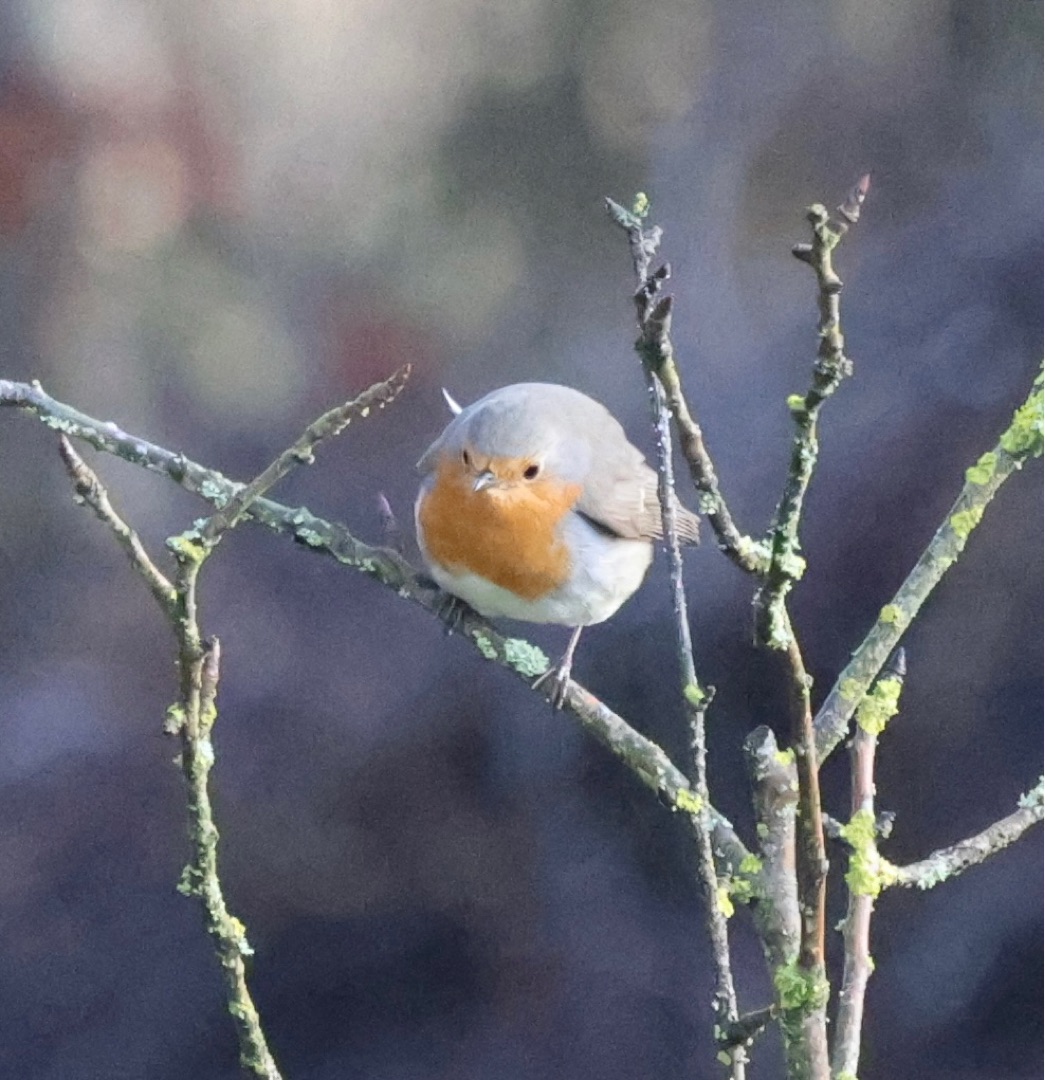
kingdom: Animalia
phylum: Chordata
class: Aves
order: Passeriformes
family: Muscicapidae
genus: Erithacus
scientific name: Erithacus rubecula
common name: Rødhals/rødkælk
